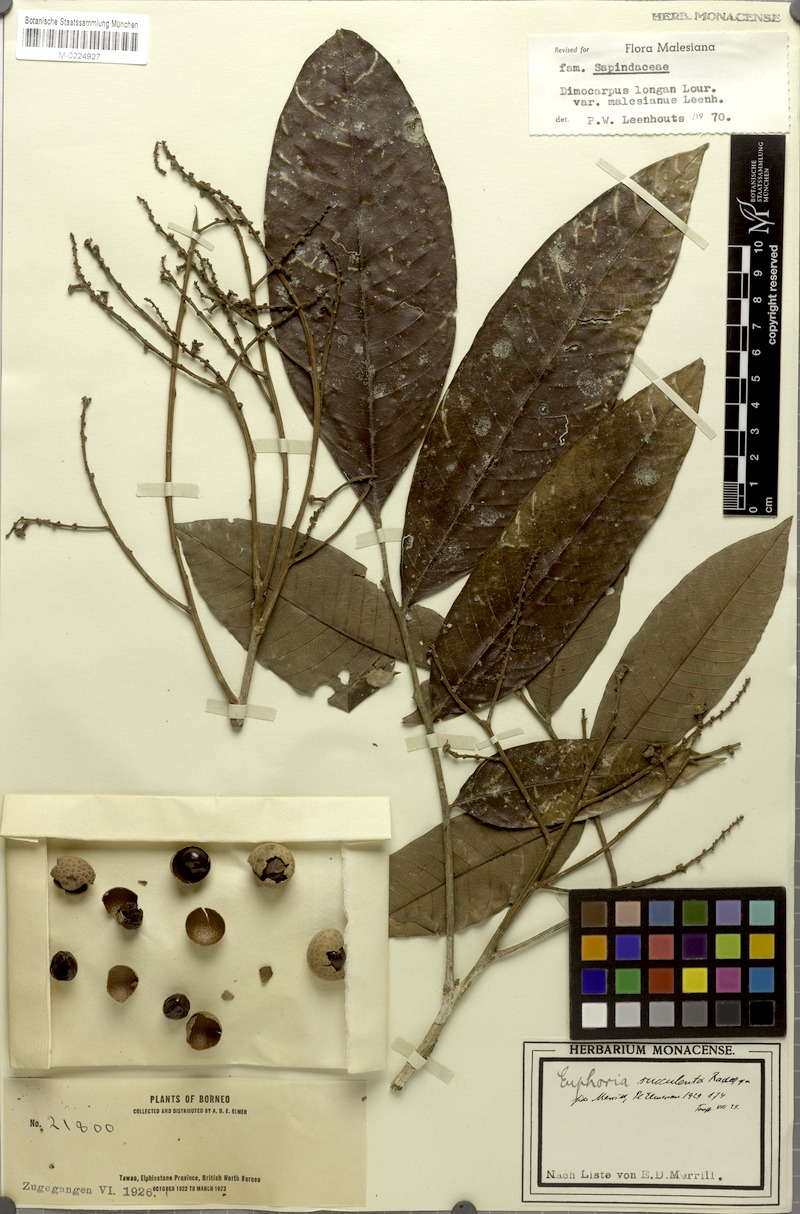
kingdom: Plantae
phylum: Tracheophyta
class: Magnoliopsida
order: Sapindales
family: Sapindaceae
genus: Litchi
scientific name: Litchi Euphoria succulenta
